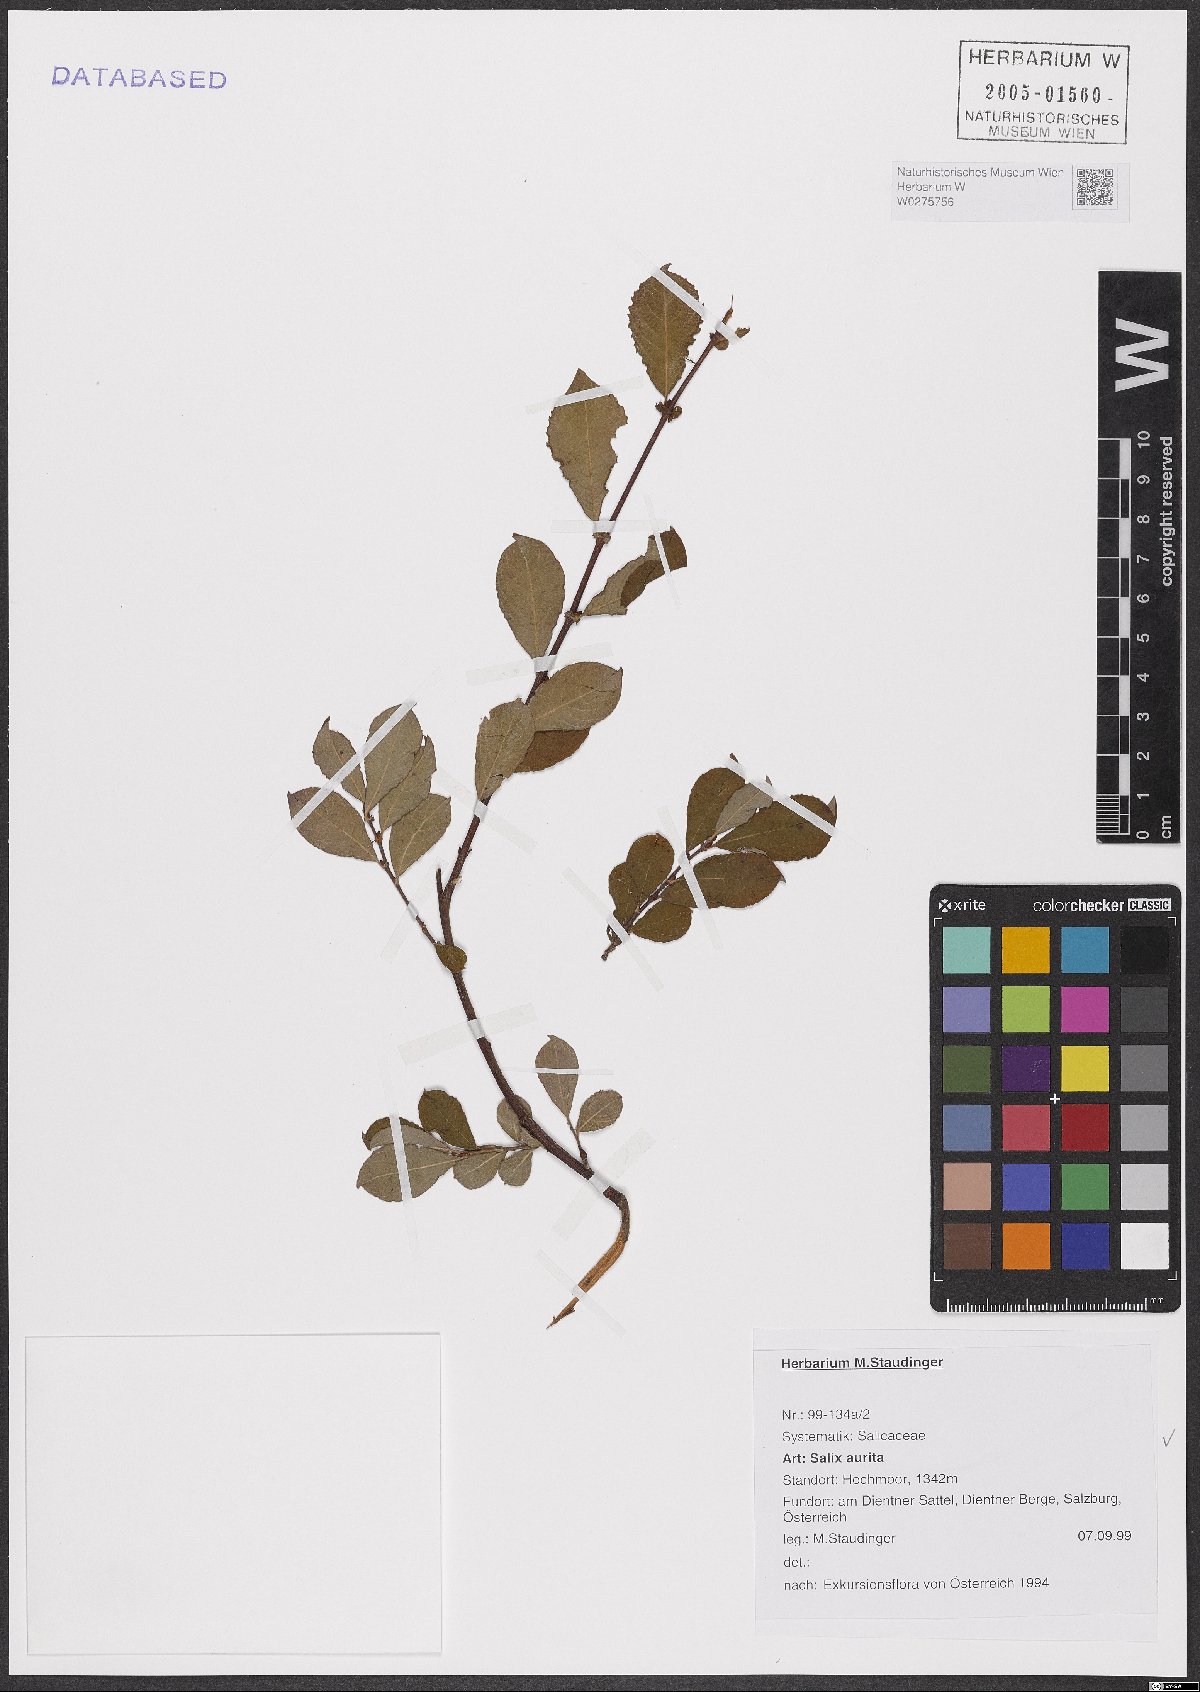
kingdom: Plantae
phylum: Tracheophyta
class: Magnoliopsida
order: Malpighiales
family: Salicaceae
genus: Salix
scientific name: Salix aurita
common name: Eared willow
